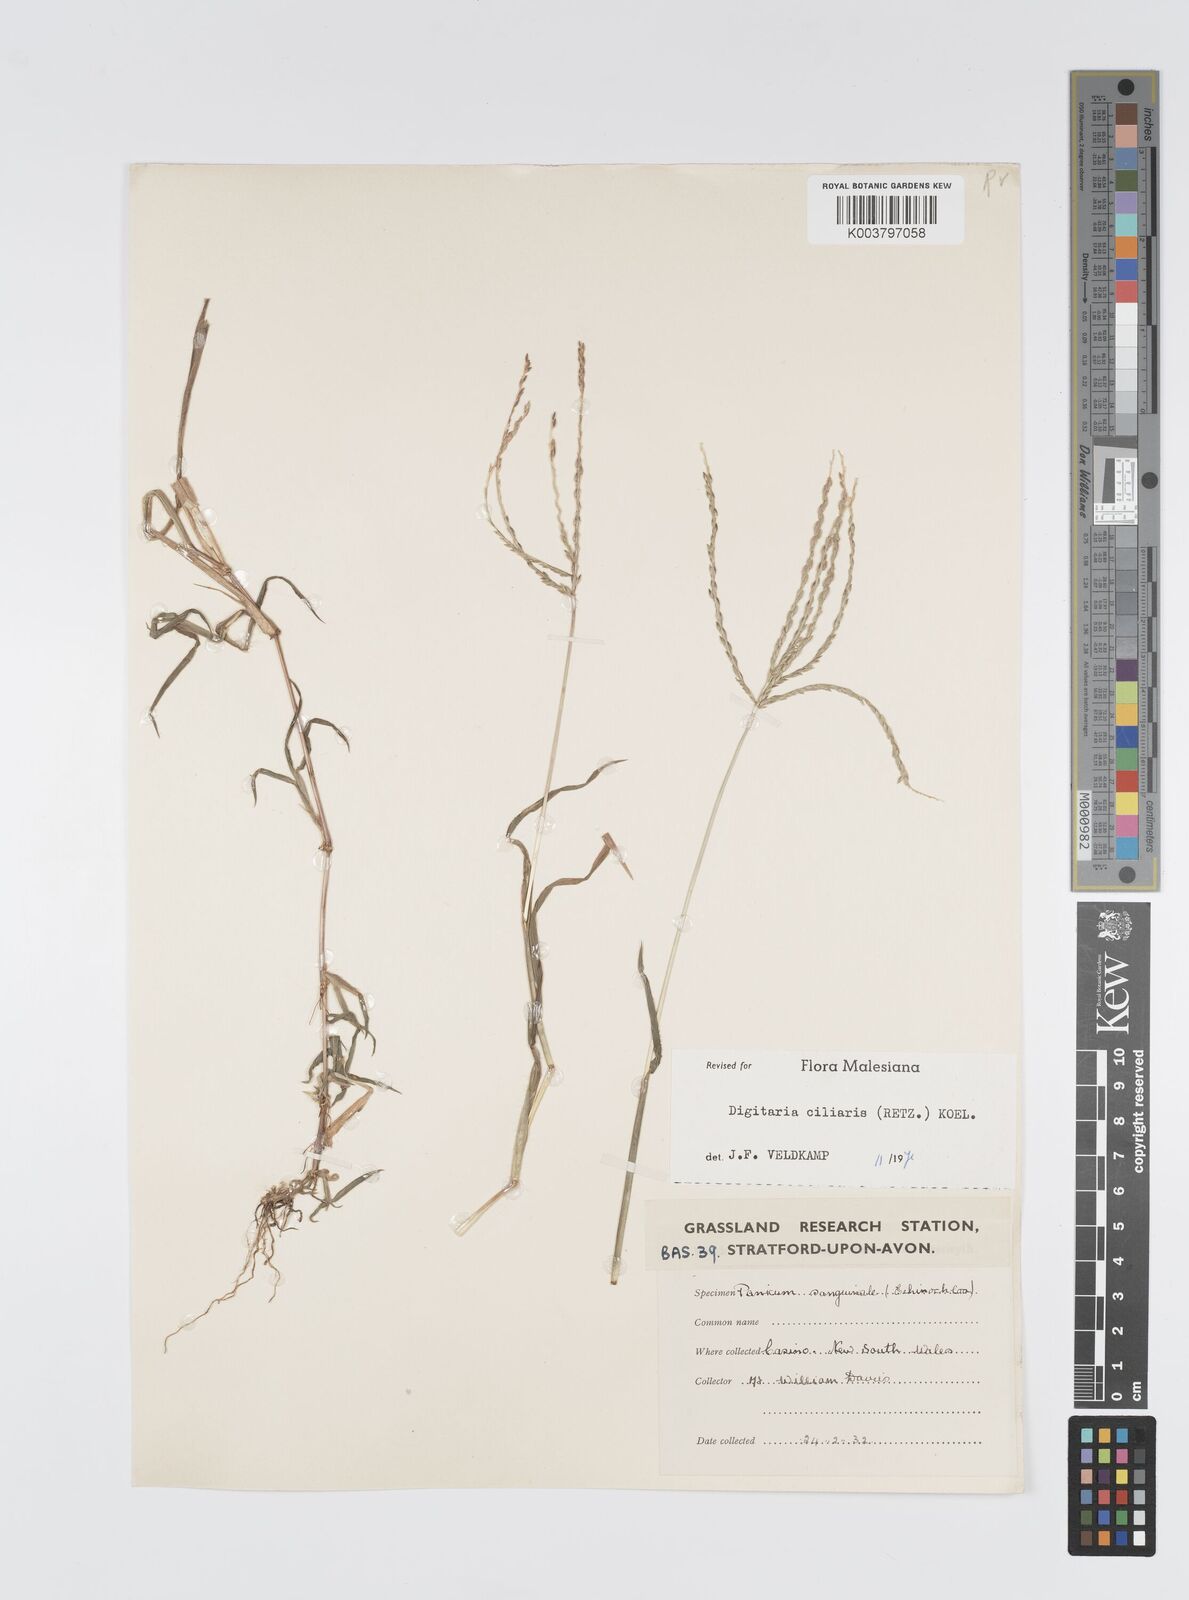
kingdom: Plantae
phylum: Tracheophyta
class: Liliopsida
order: Poales
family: Poaceae
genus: Digitaria
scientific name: Digitaria ciliaris
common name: Tropical finger-grass
